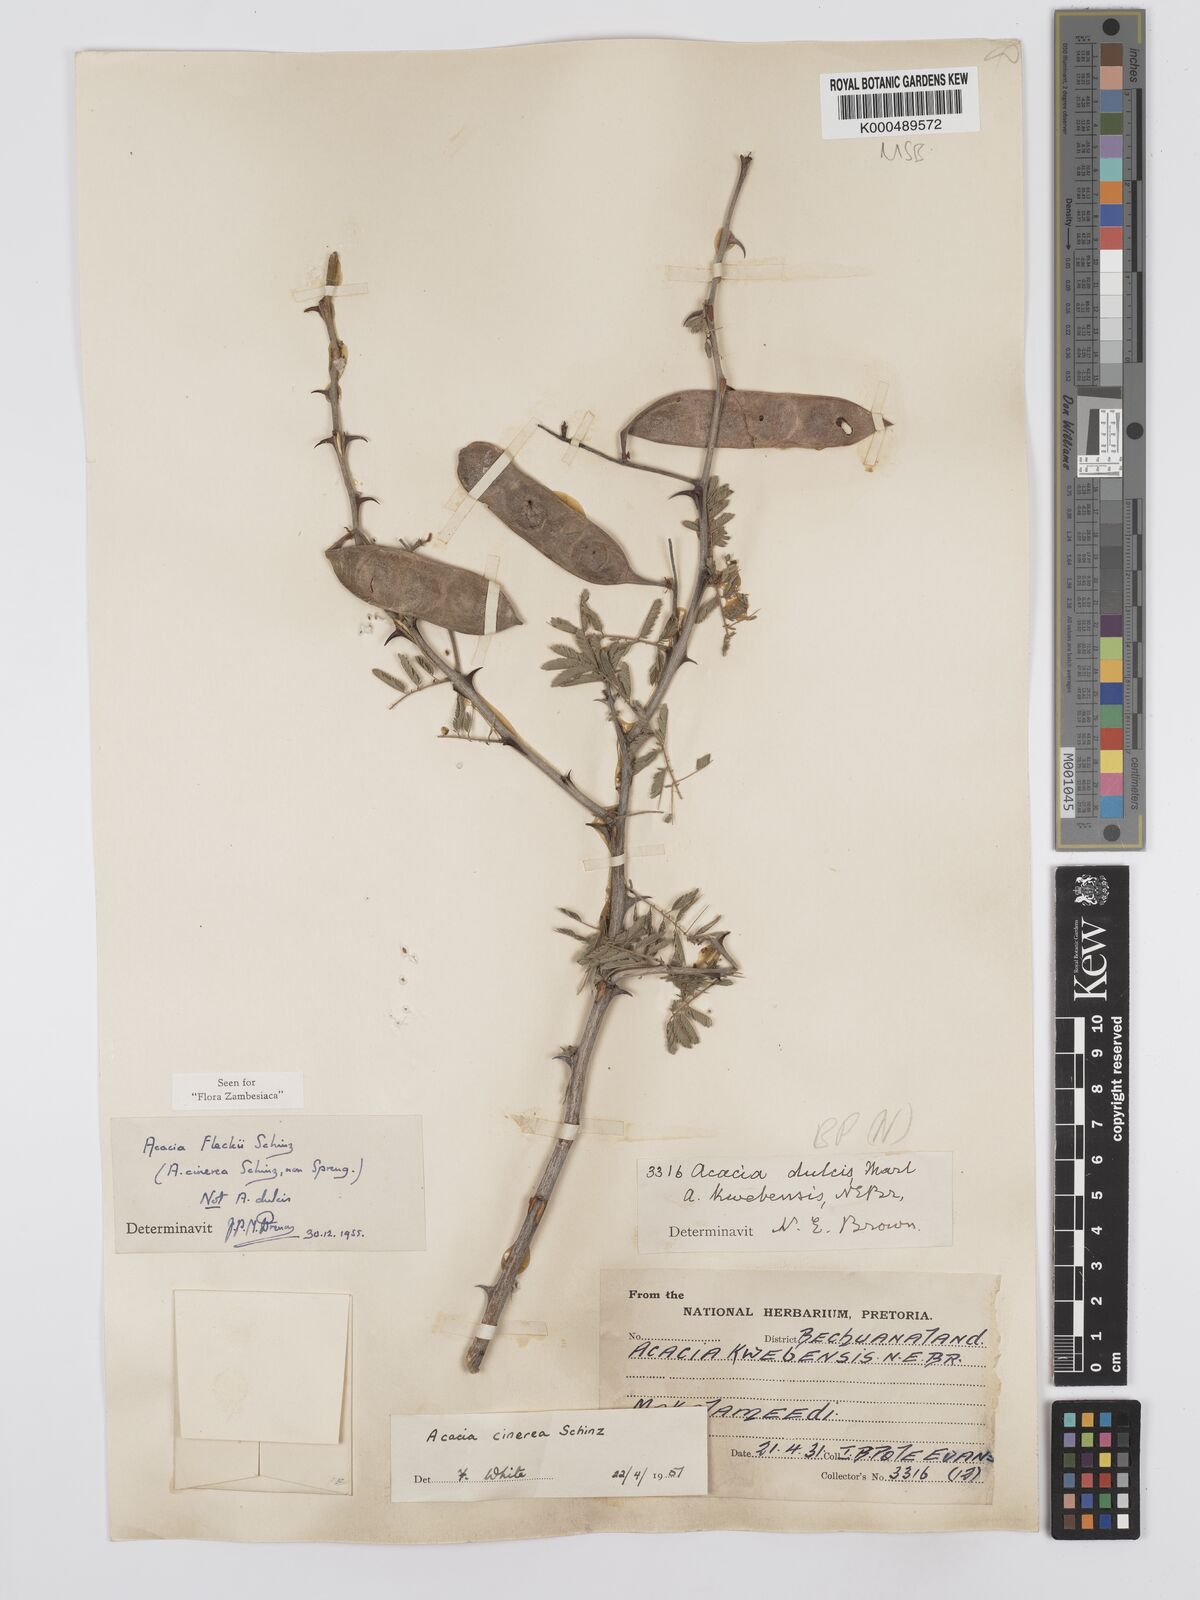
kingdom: Plantae
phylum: Tracheophyta
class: Magnoliopsida
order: Fabales
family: Fabaceae
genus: Senegalia
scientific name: Senegalia fleckii
